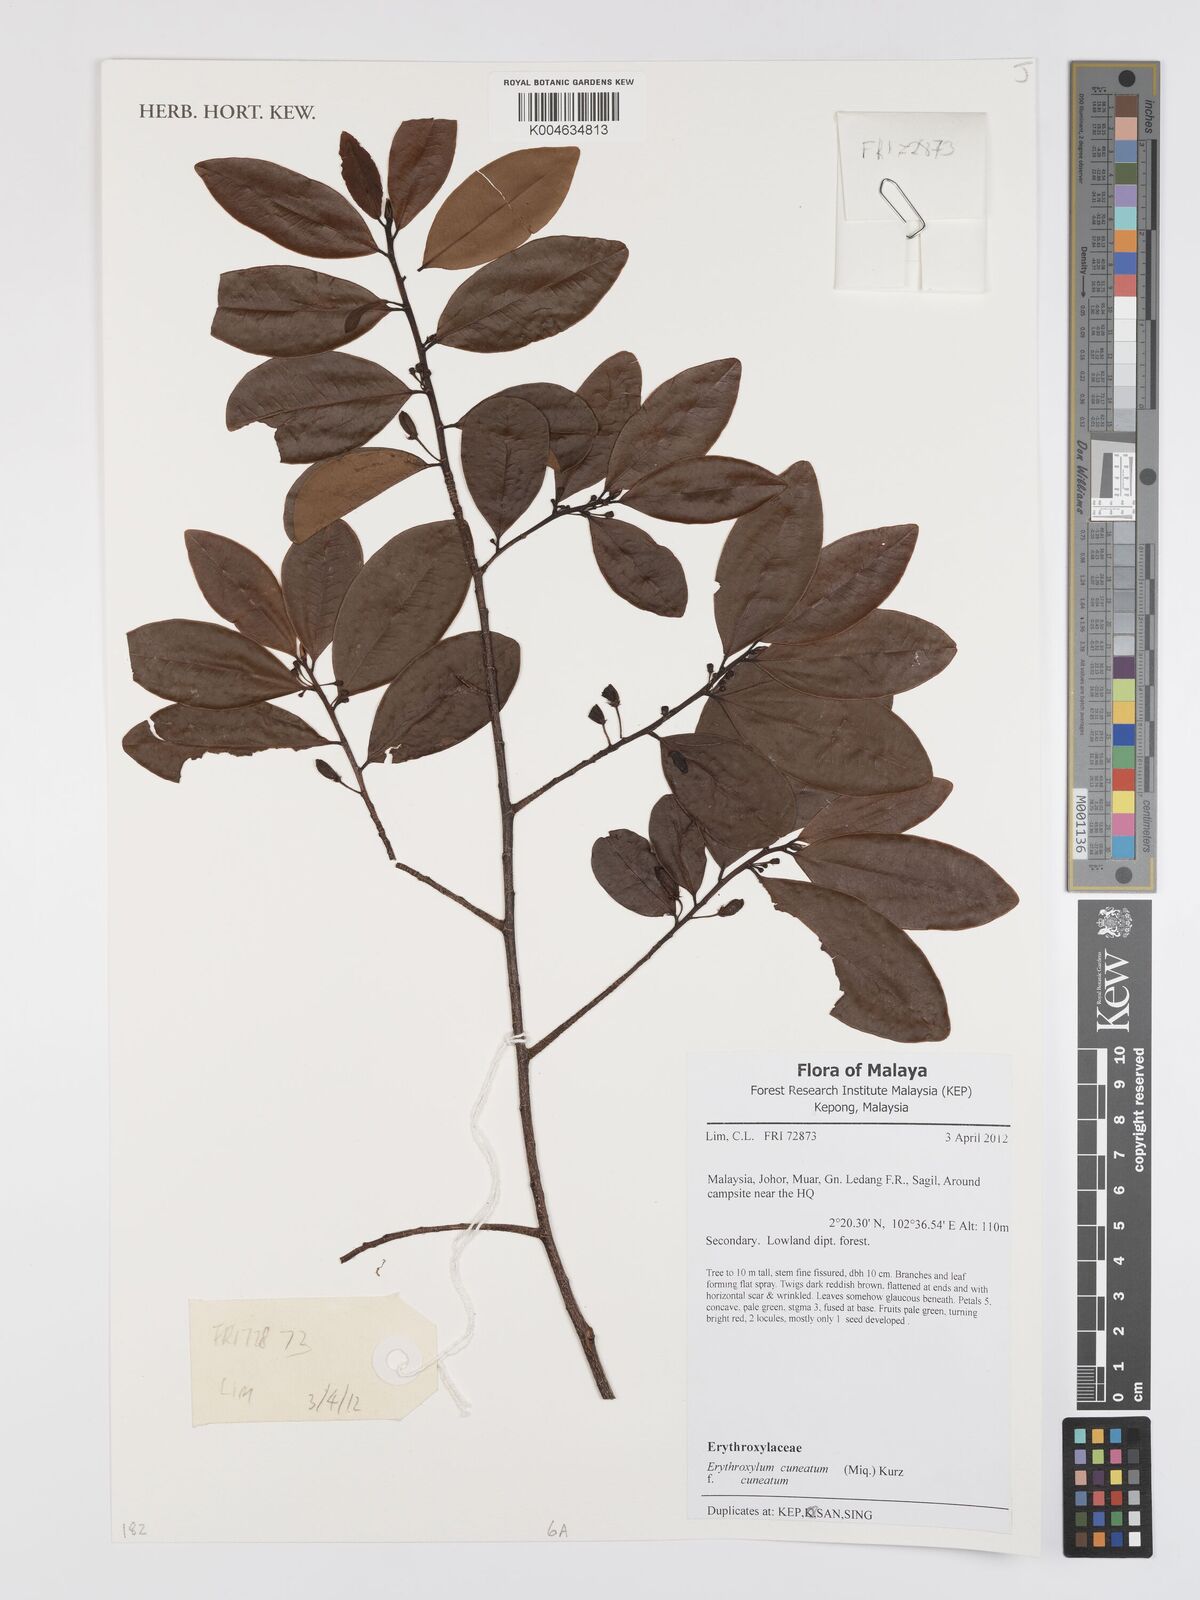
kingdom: Plantae
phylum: Tracheophyta
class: Magnoliopsida
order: Malpighiales
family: Erythroxylaceae
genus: Erythroxylum
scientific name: Erythroxylum cuneatum
